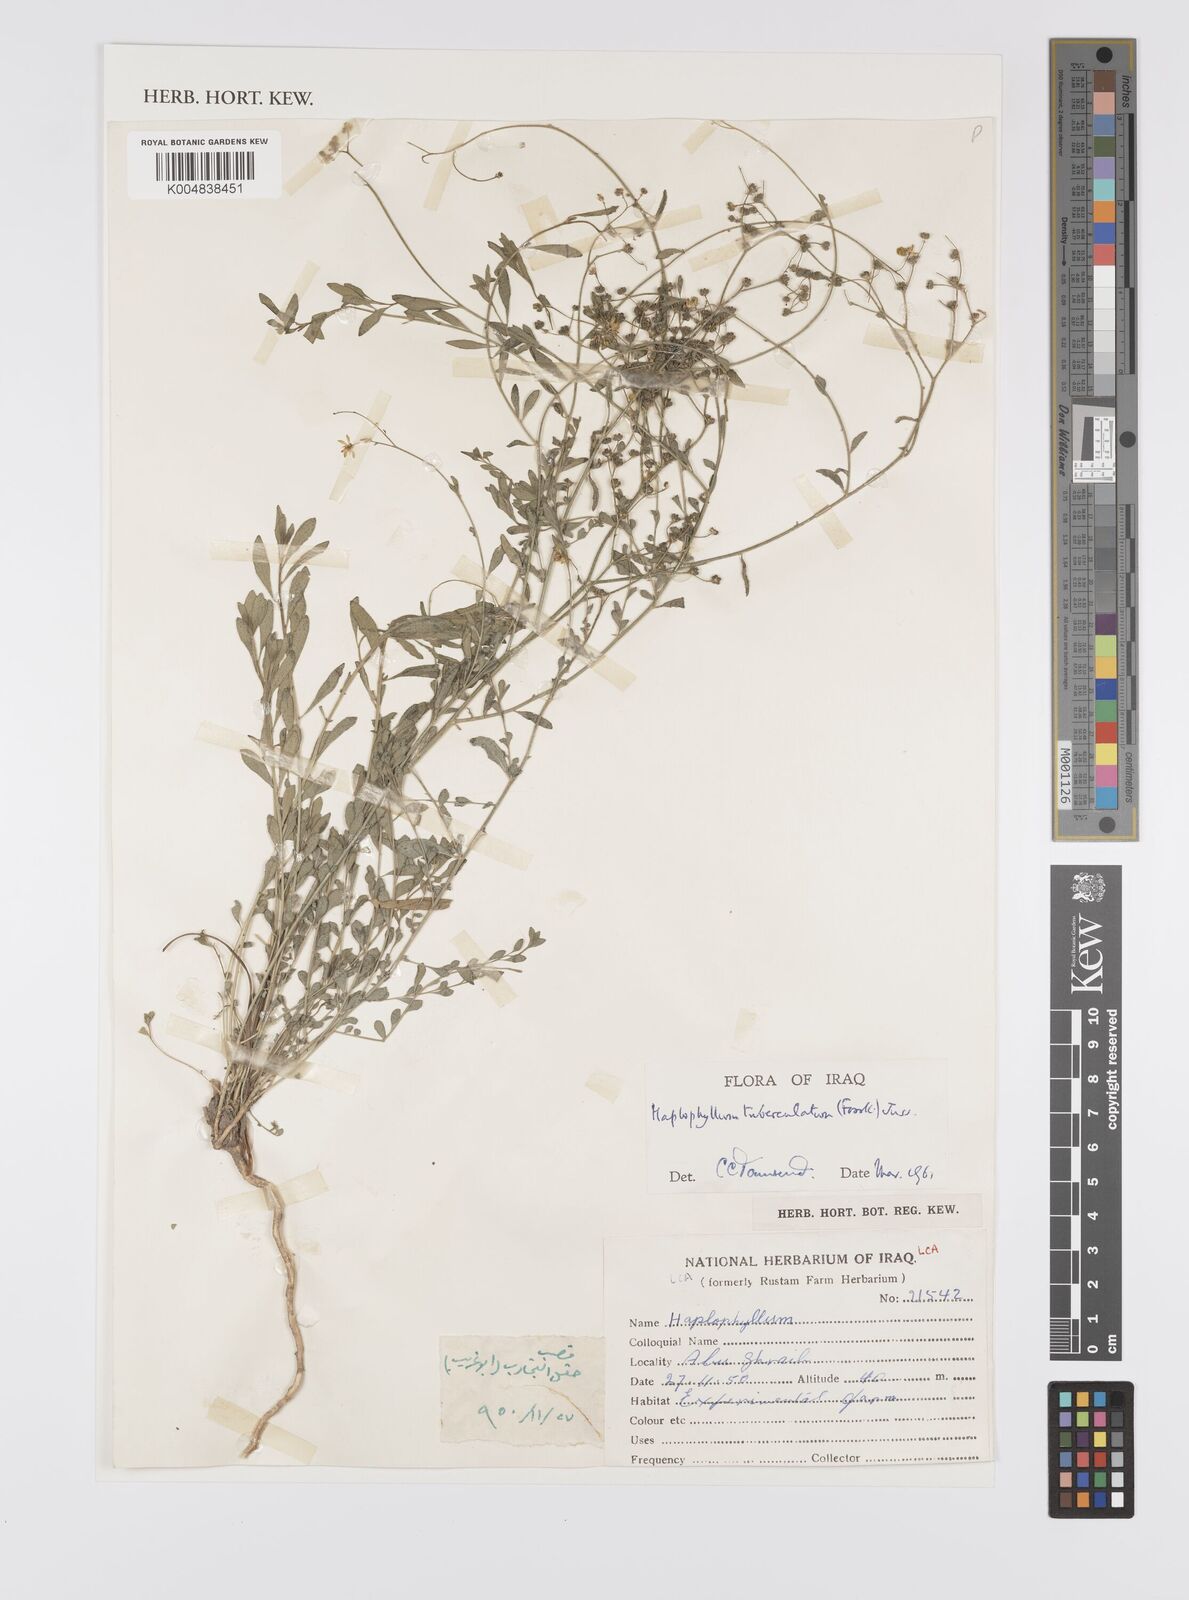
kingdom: Plantae
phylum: Tracheophyta
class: Magnoliopsida
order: Sapindales
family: Rutaceae
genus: Haplophyllum
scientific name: Haplophyllum tuberculatum
